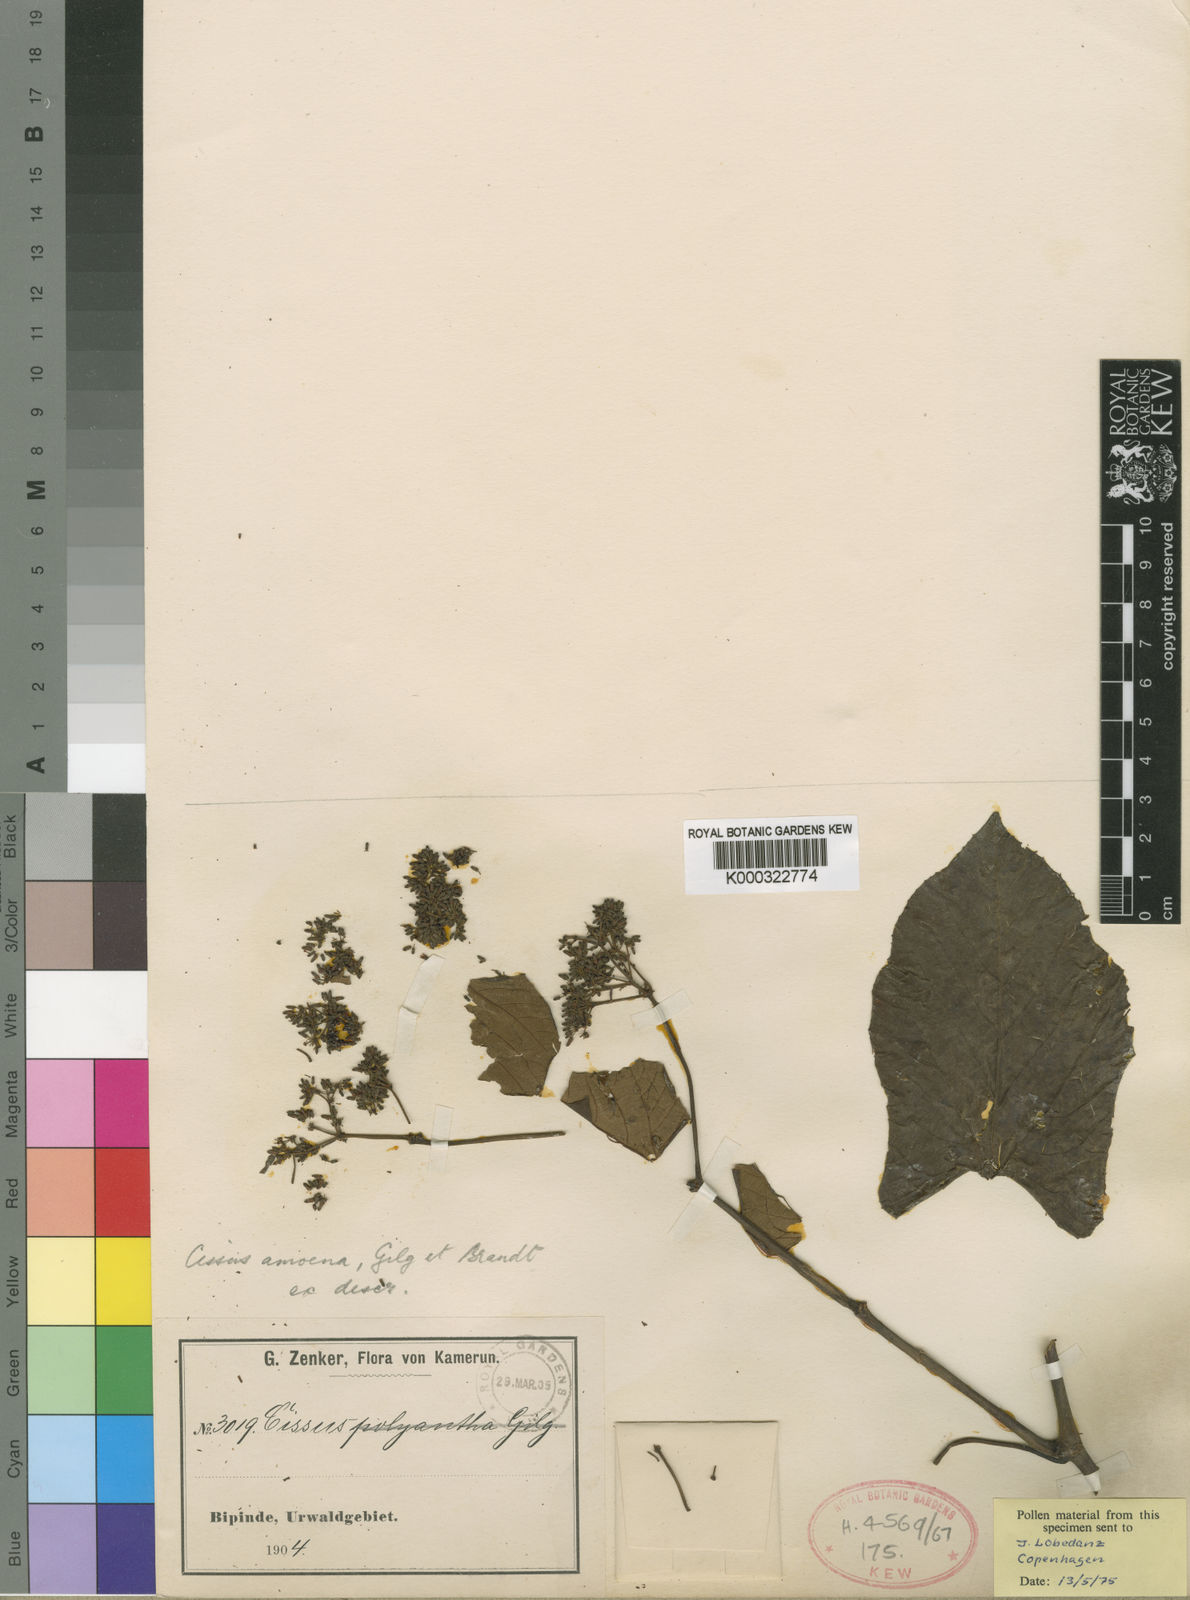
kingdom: Plantae
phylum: Tracheophyta
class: Magnoliopsida
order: Vitales
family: Vitaceae
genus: Cissus
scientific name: Cissus amoena
